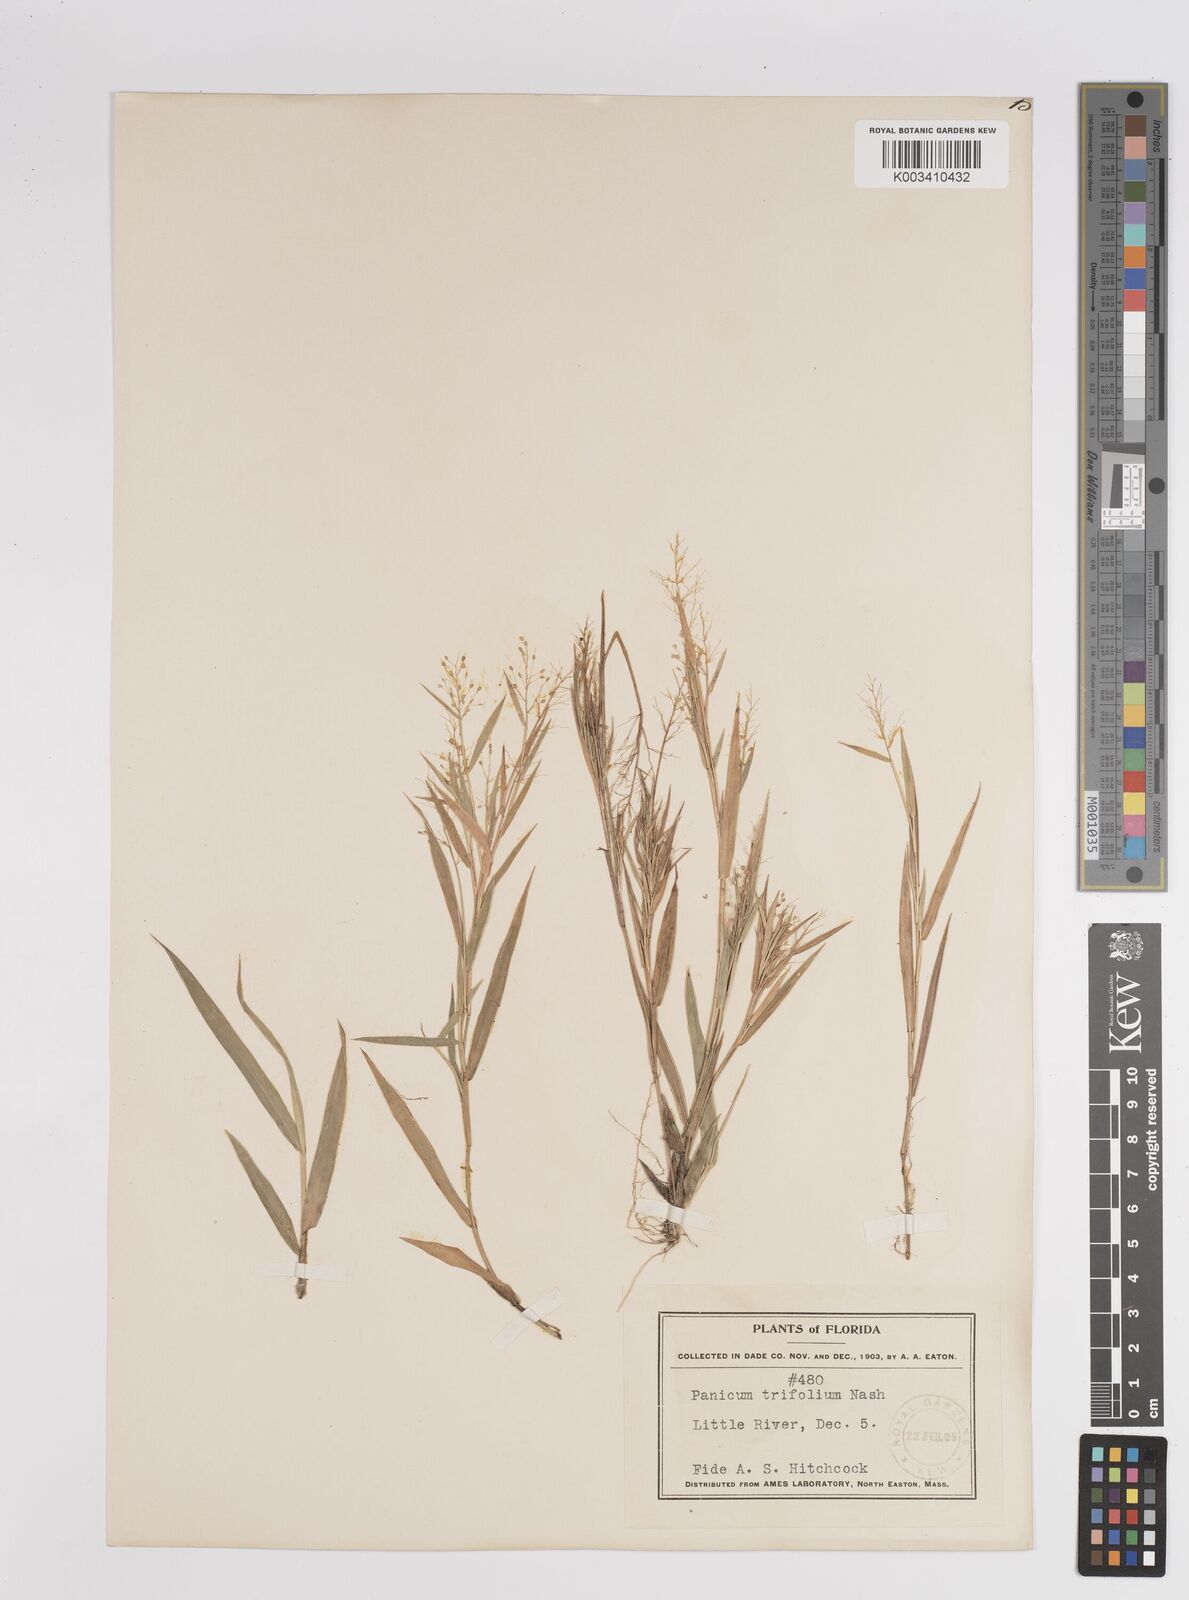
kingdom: Plantae
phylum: Tracheophyta
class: Liliopsida
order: Poales
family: Poaceae
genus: Dichanthelium
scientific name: Dichanthelium trifolium
